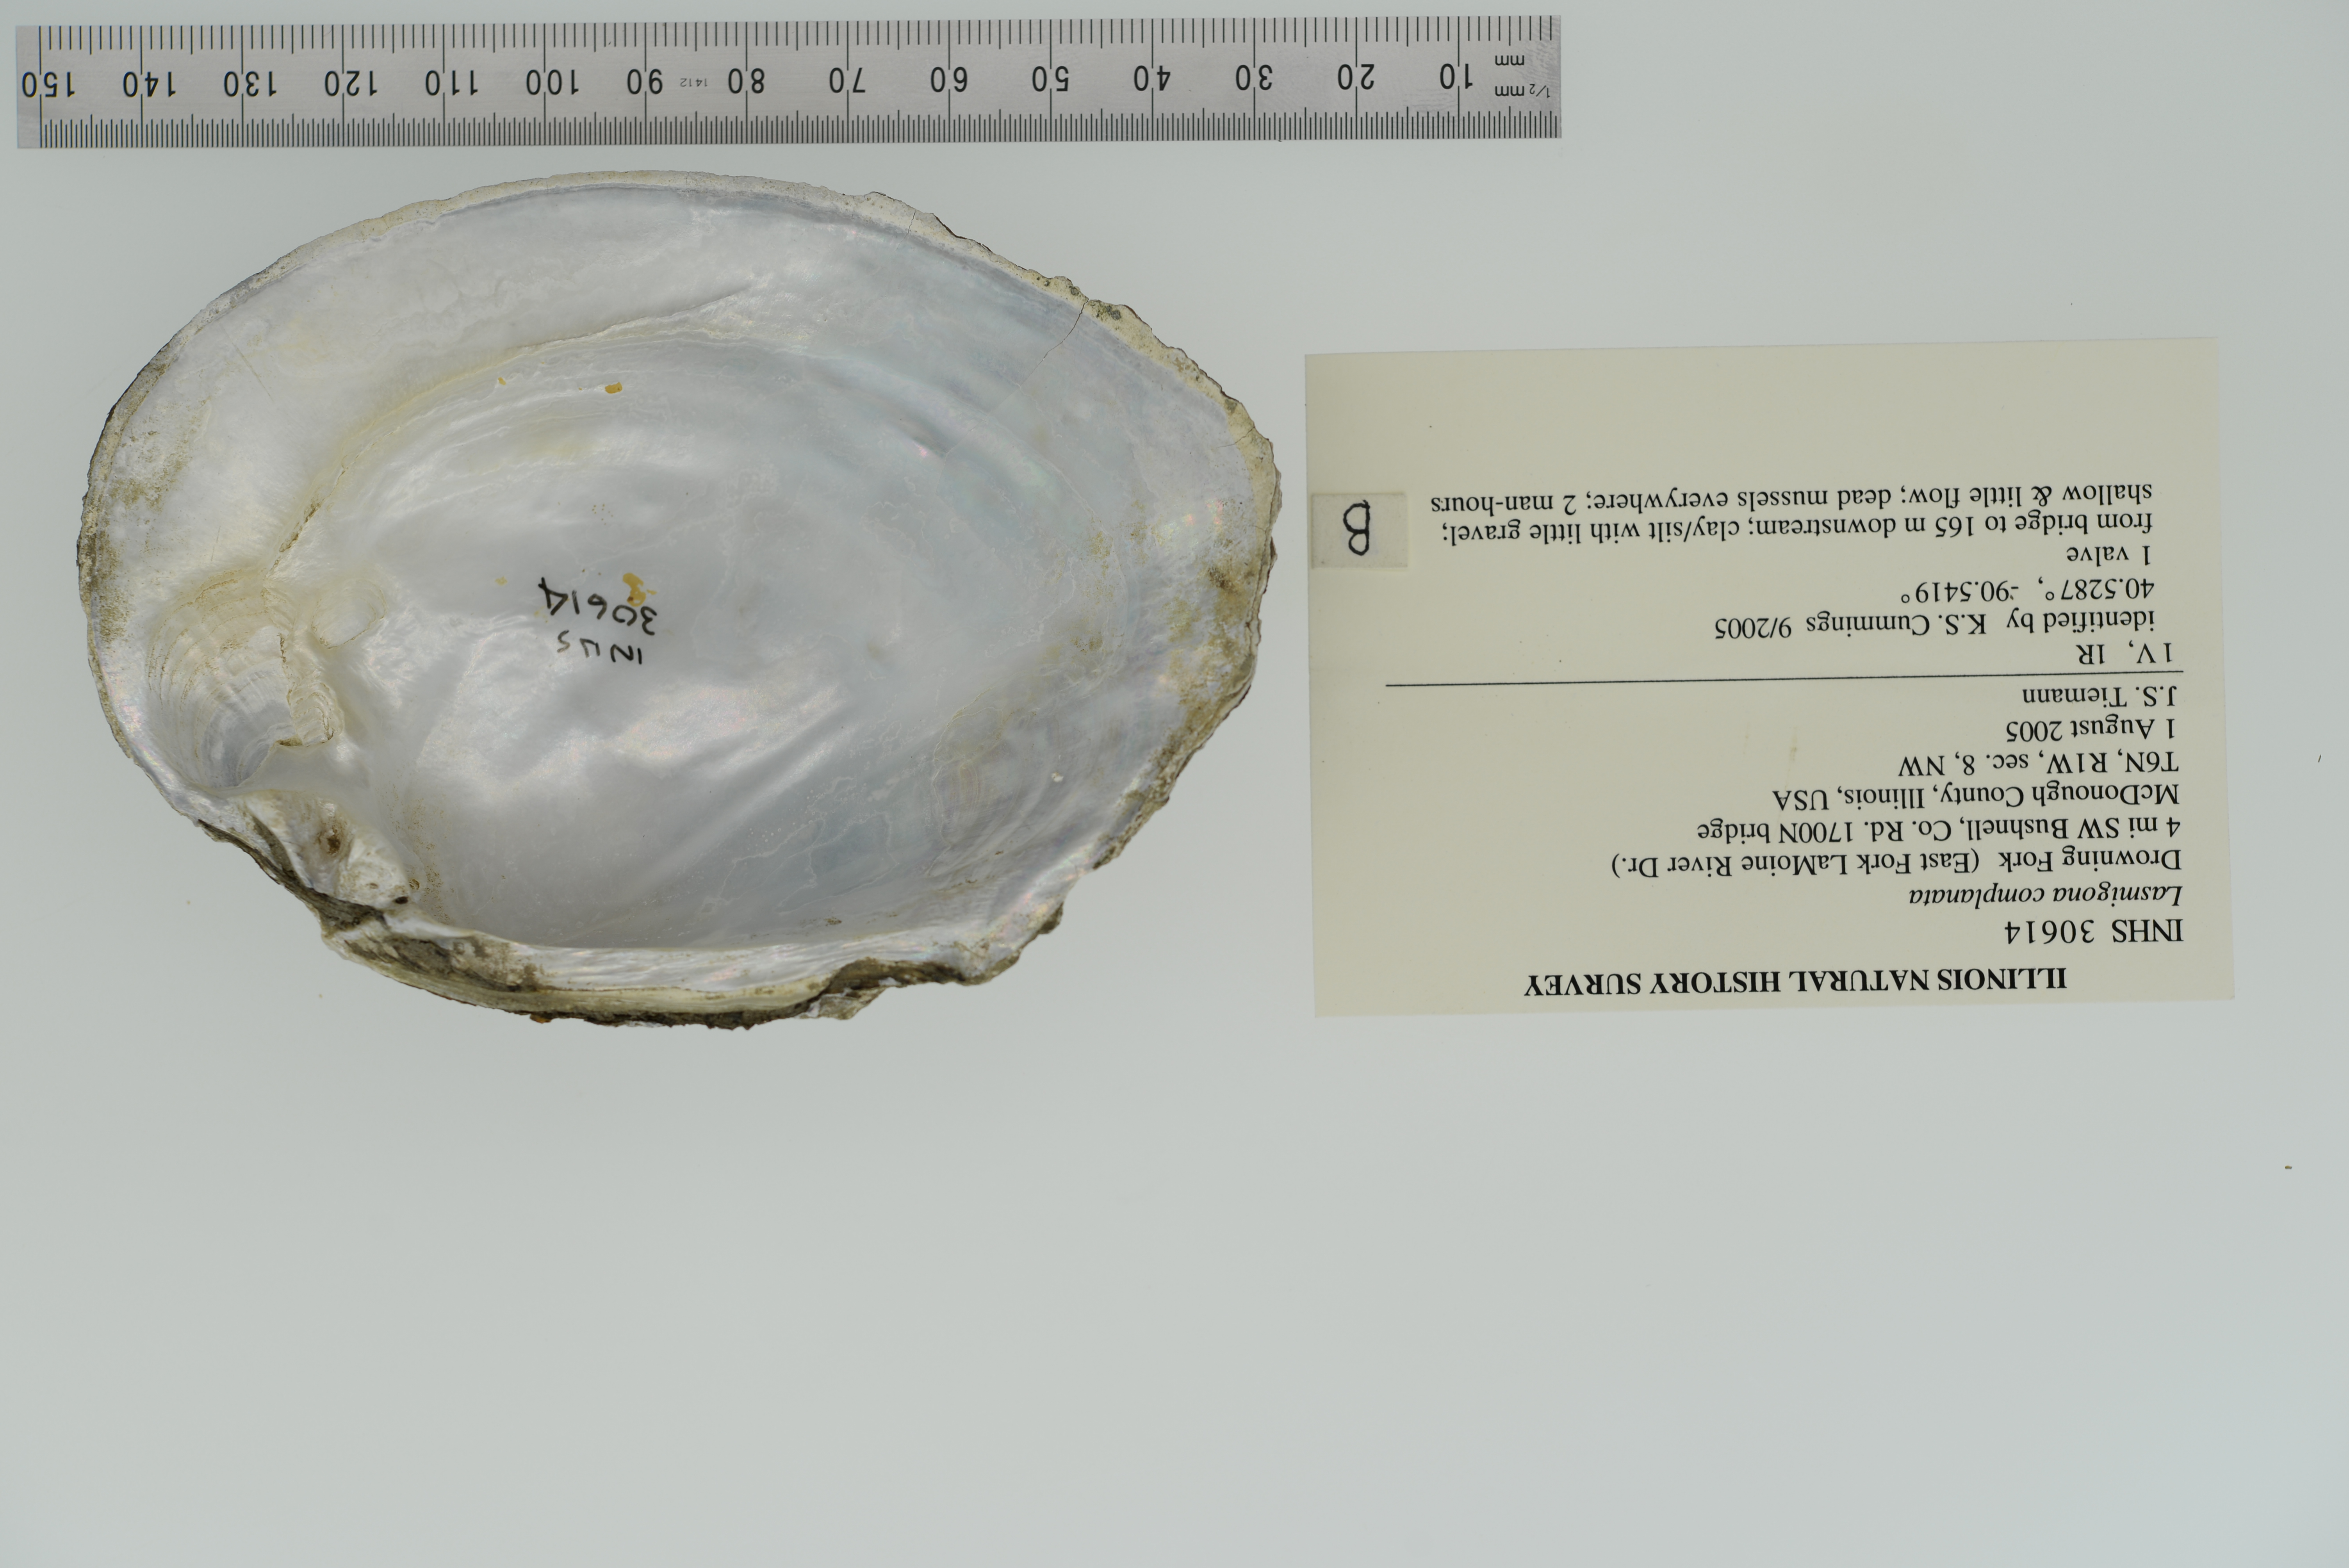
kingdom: Animalia
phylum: Mollusca
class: Bivalvia
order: Unionida
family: Unionidae
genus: Lasmigona
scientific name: Lasmigona complanata
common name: White heelsplitter
